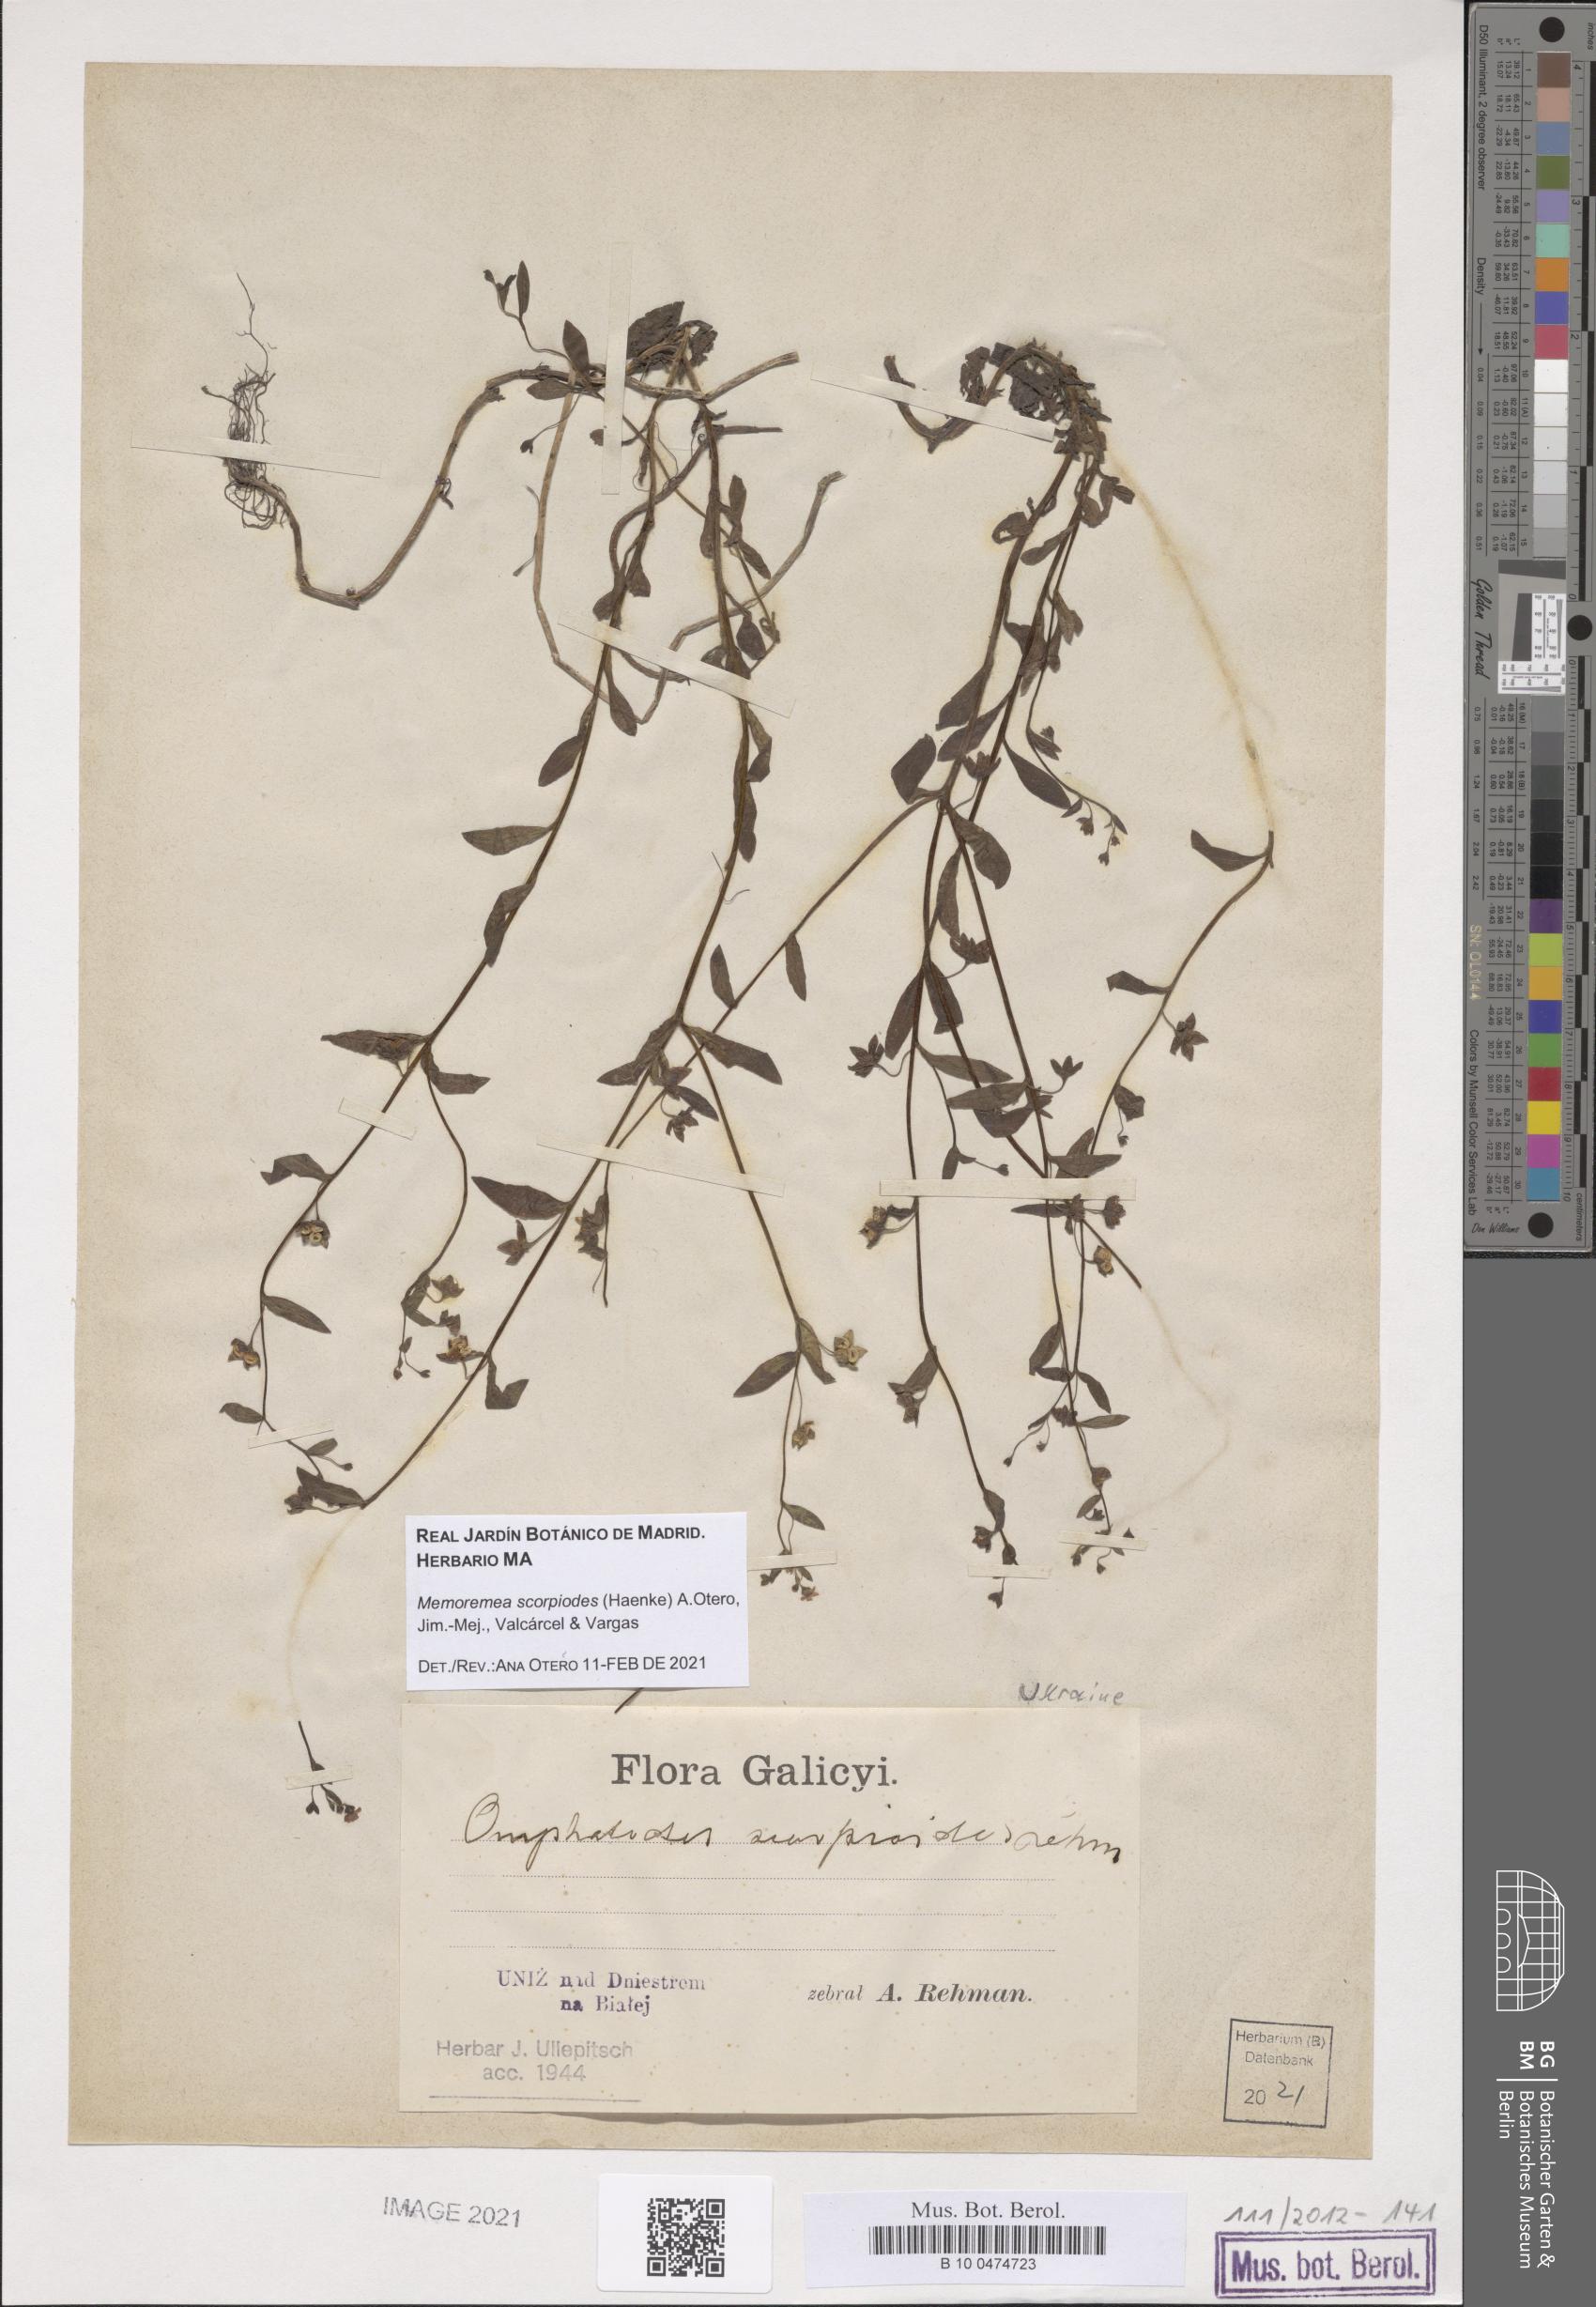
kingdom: Plantae
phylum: Tracheophyta
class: Magnoliopsida
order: Boraginales
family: Boraginaceae
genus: Memoremea
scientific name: Memoremea scorpioides
